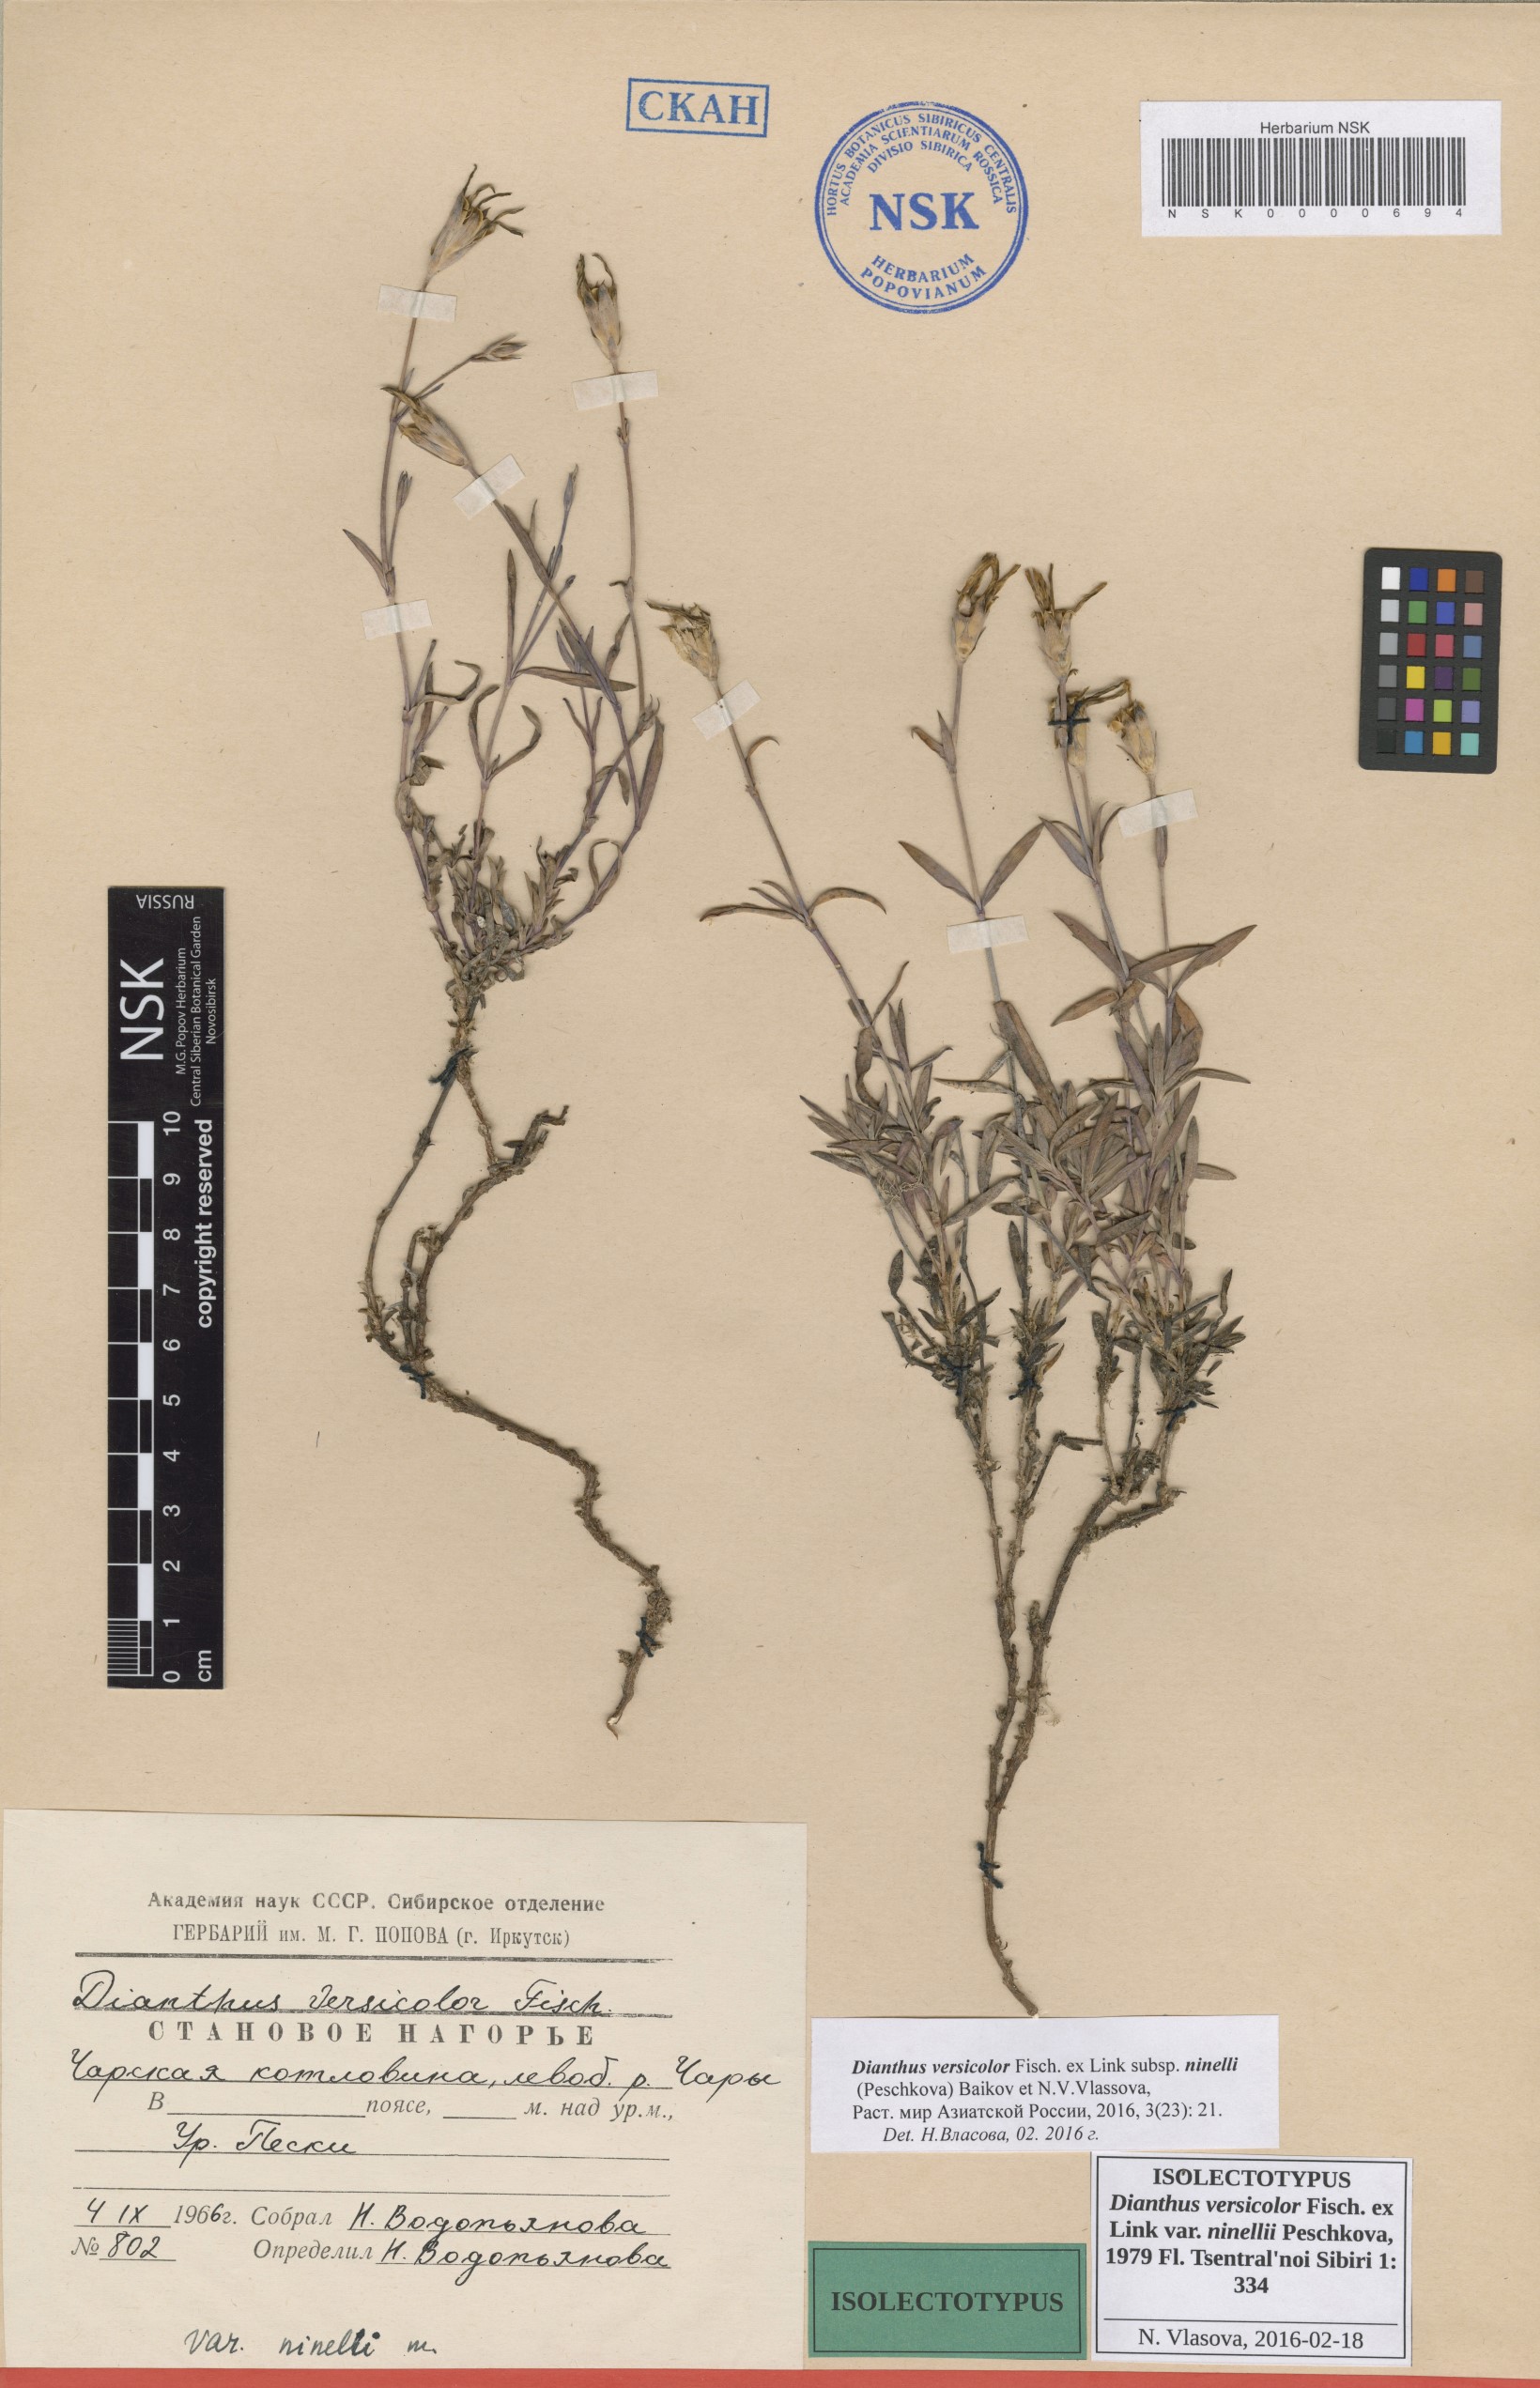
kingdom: Plantae
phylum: Tracheophyta
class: Magnoliopsida
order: Caryophyllales
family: Caryophyllaceae
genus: Dianthus
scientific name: Dianthus chinensis
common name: Rainbow pink
